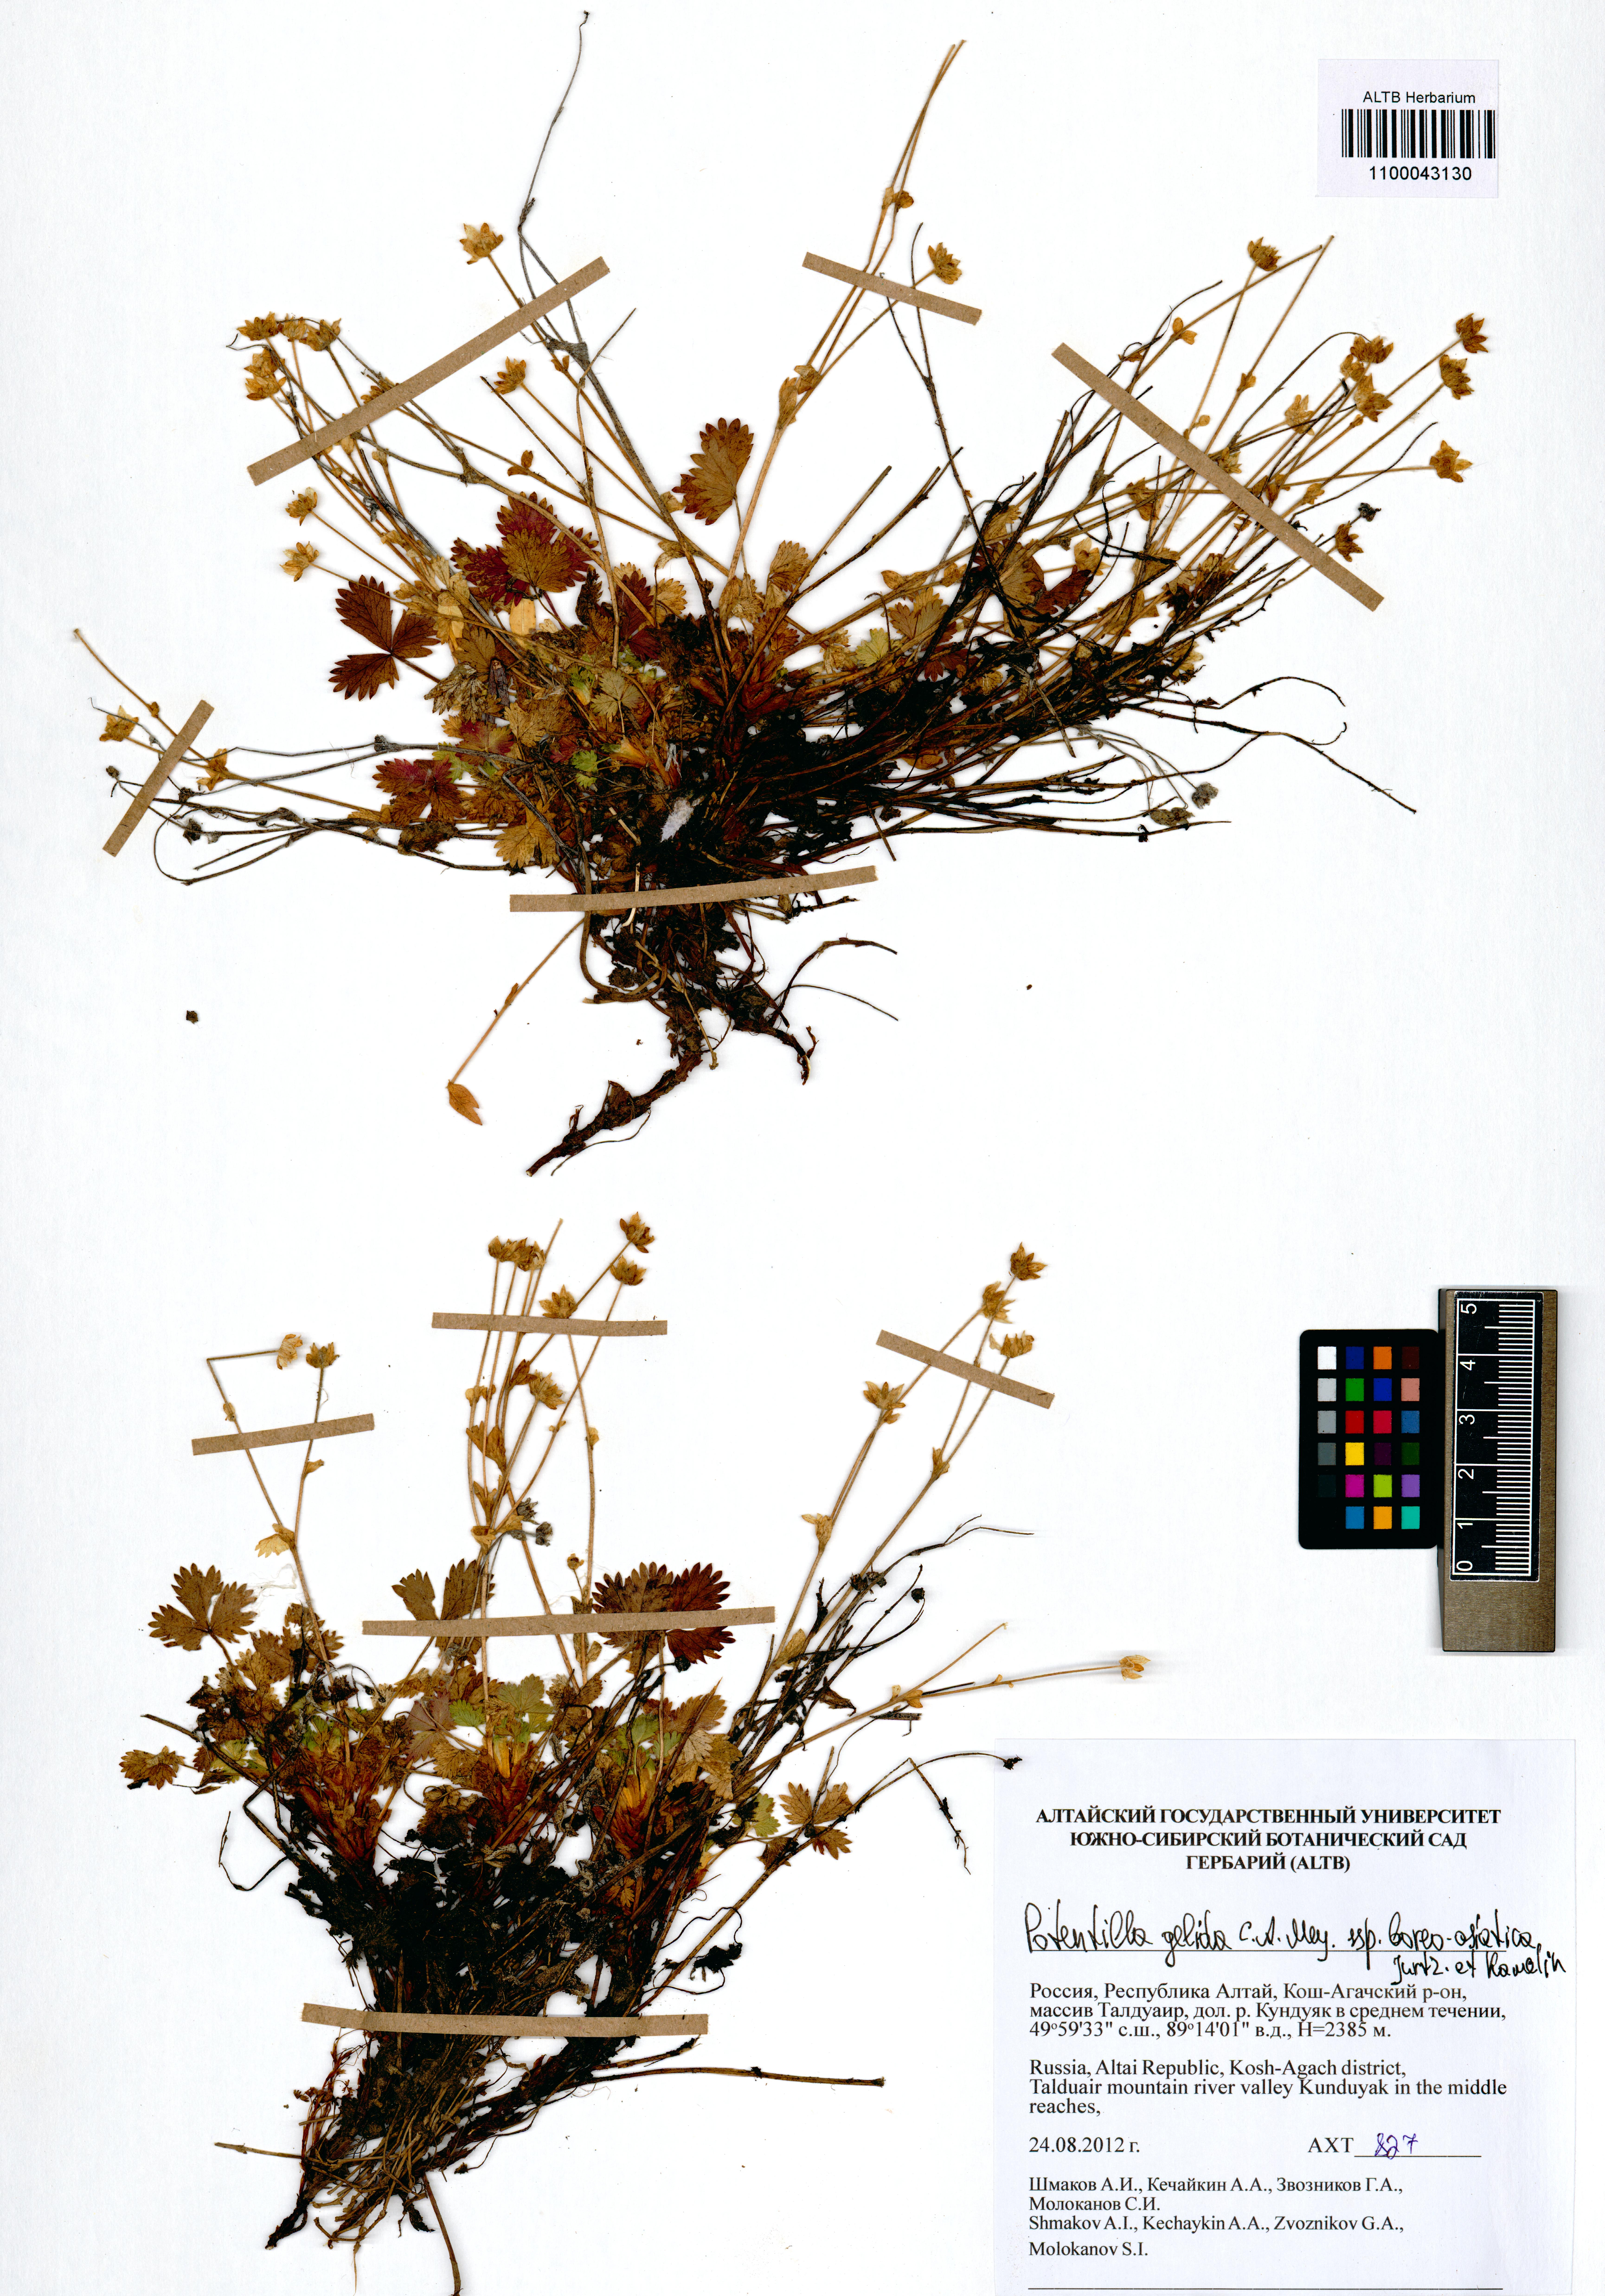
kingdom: Plantae
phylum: Tracheophyta
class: Magnoliopsida
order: Rosales
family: Rosaceae
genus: Potentilla
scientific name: Potentilla crantzii
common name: Alpine cinquefoil
